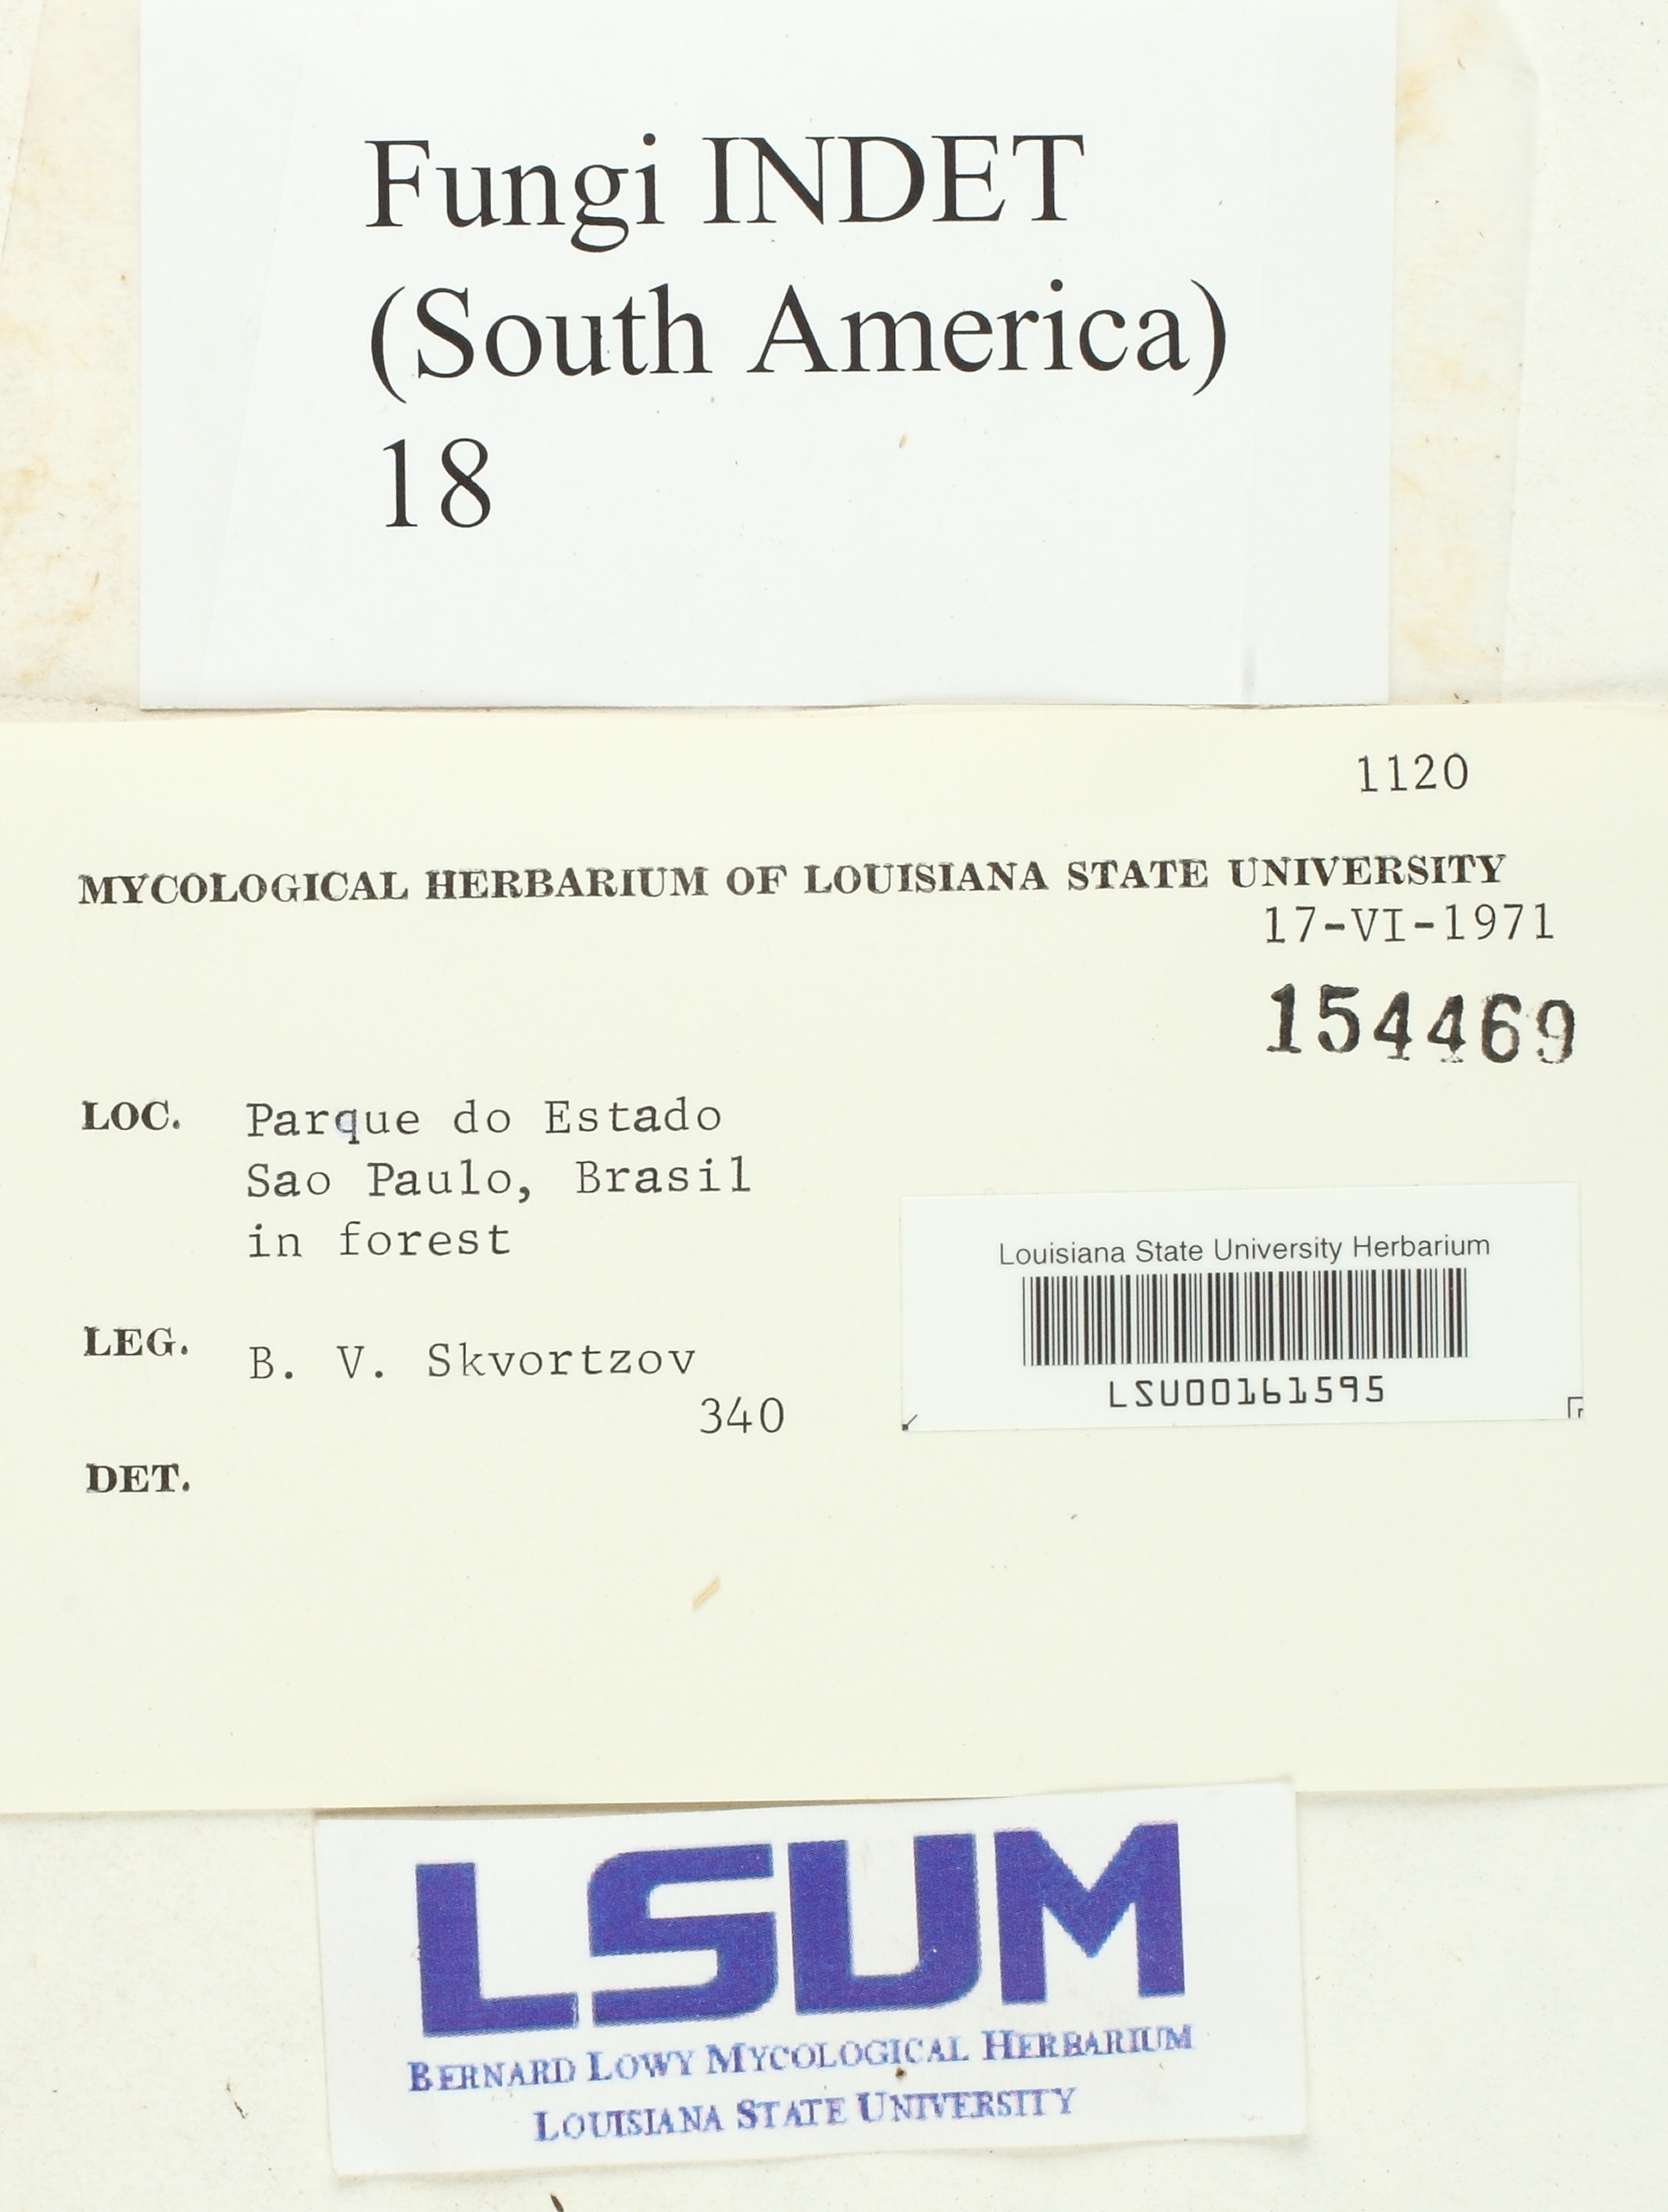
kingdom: Fungi
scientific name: Fungi
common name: Fungi
